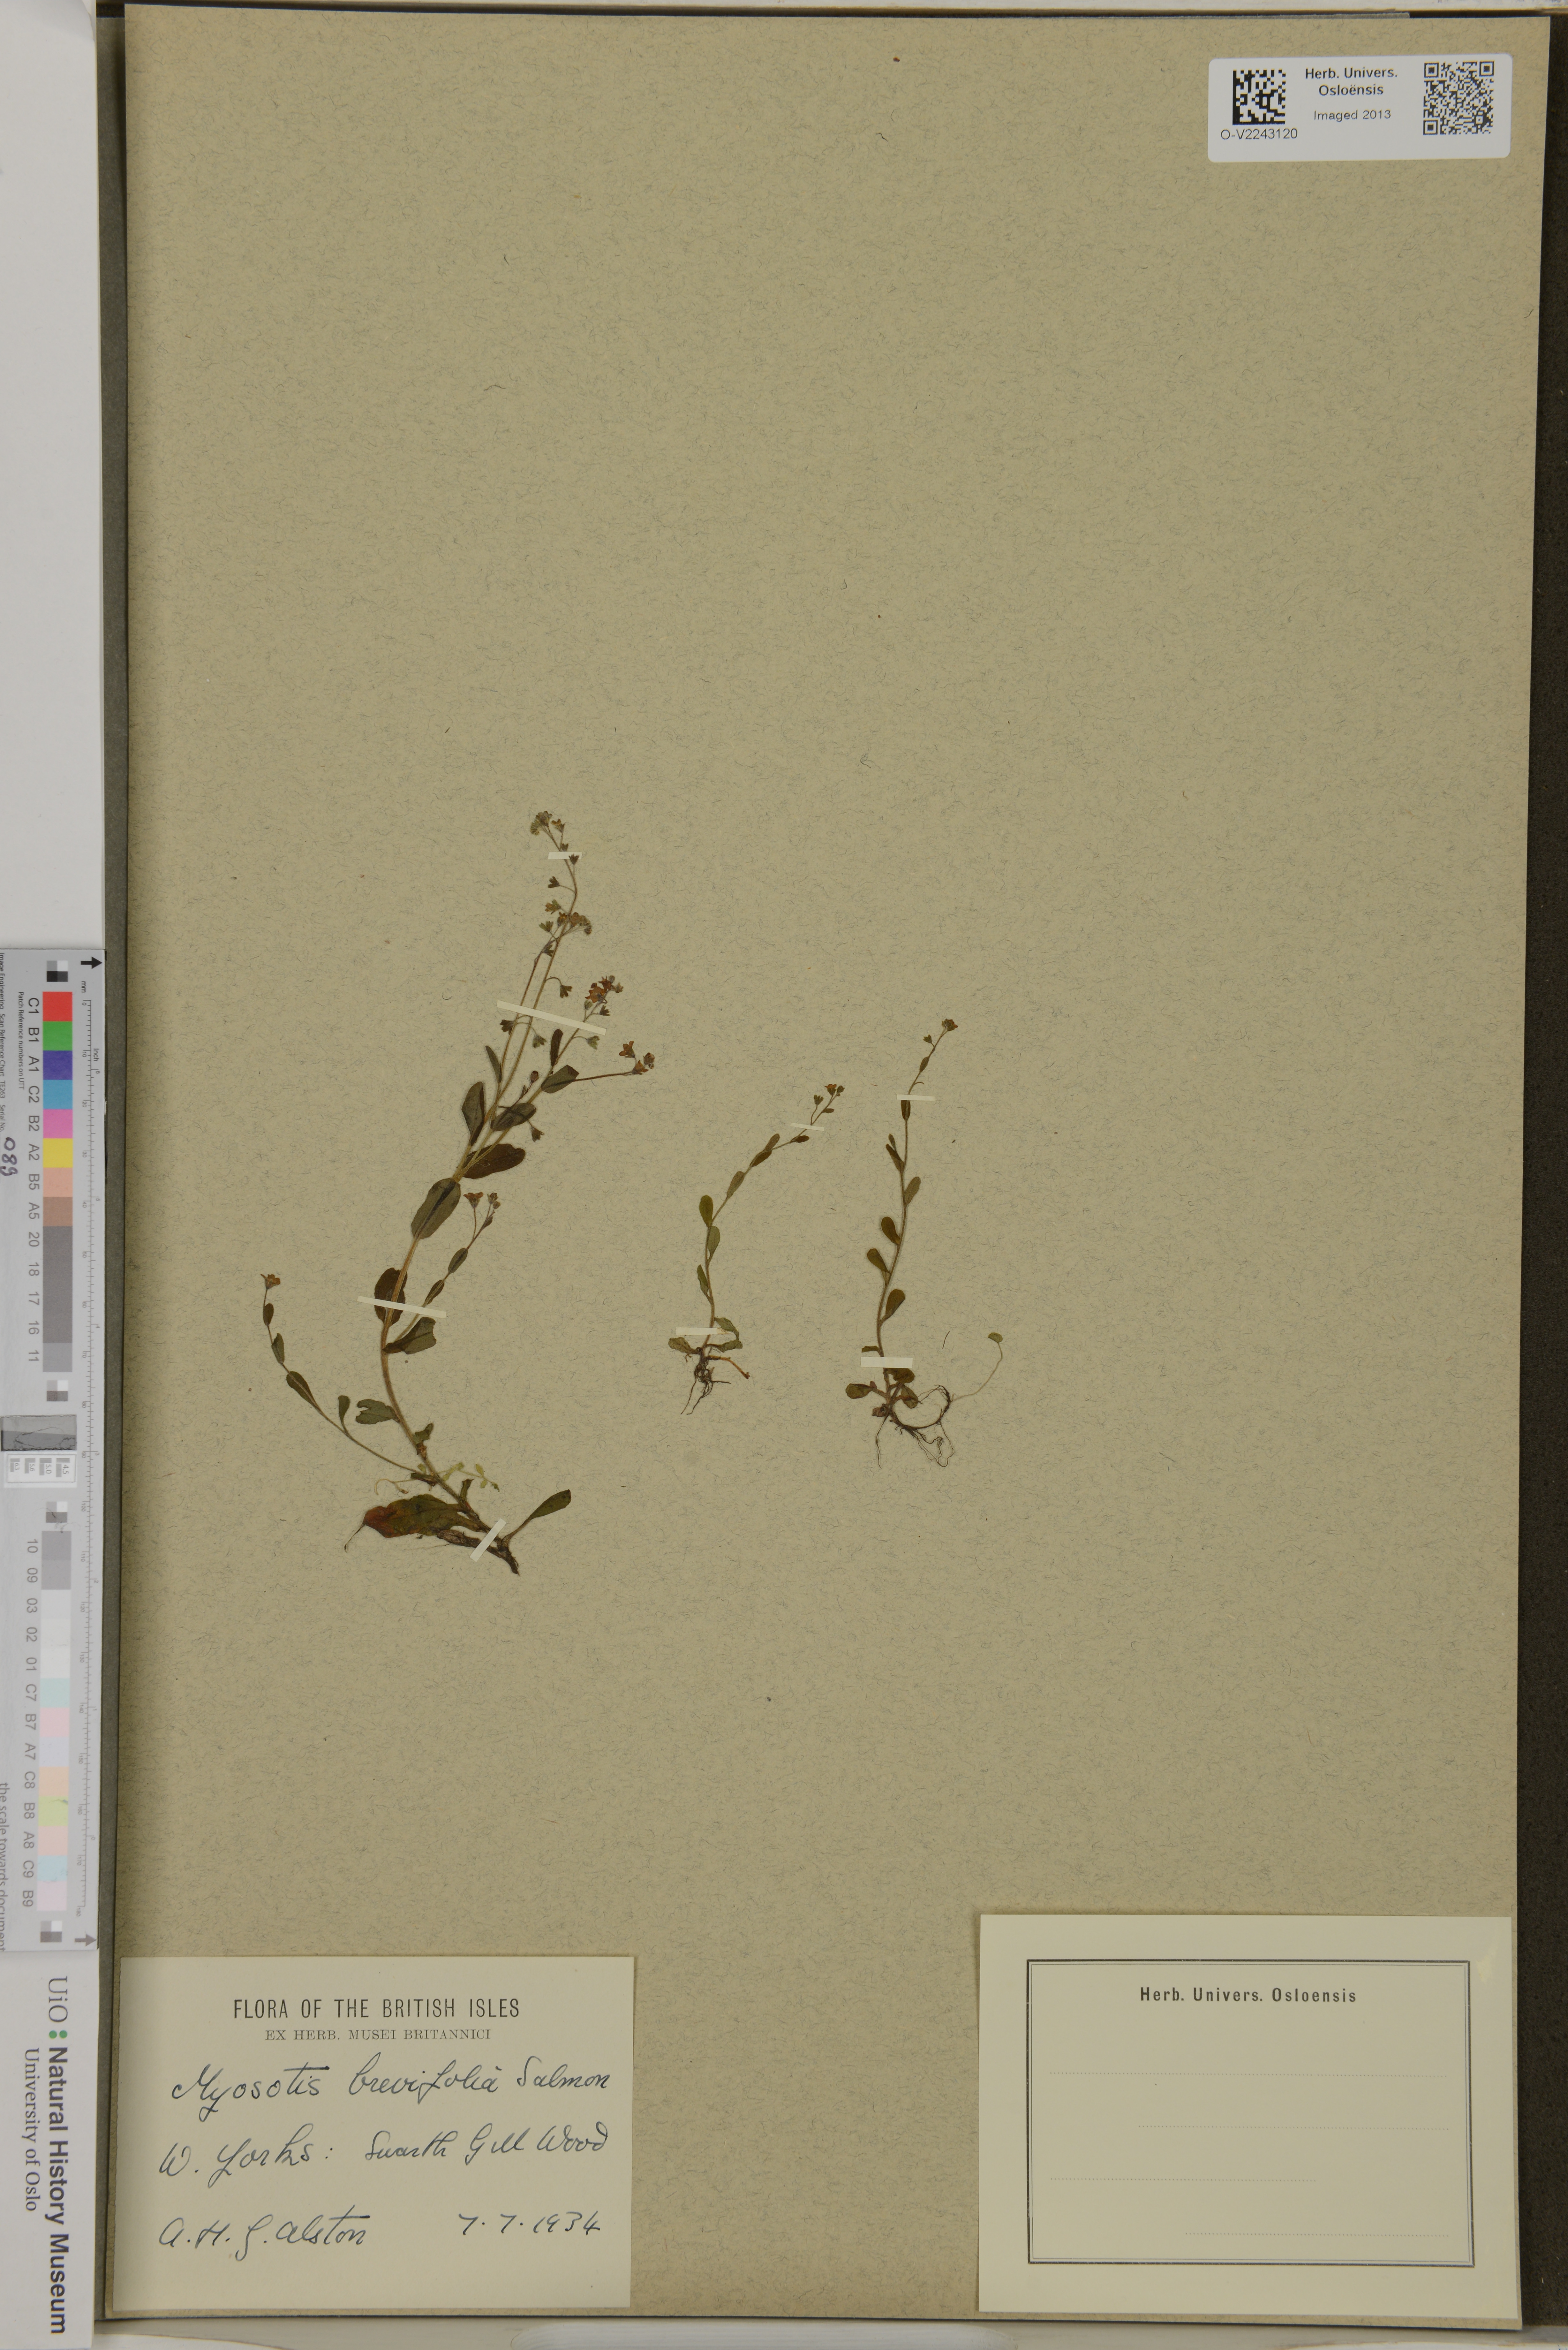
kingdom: Plantae
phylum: Tracheophyta
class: Magnoliopsida
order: Boraginales
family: Boraginaceae
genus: Myosotis
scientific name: Myosotis stolonifera
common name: Pale forget-me-not
